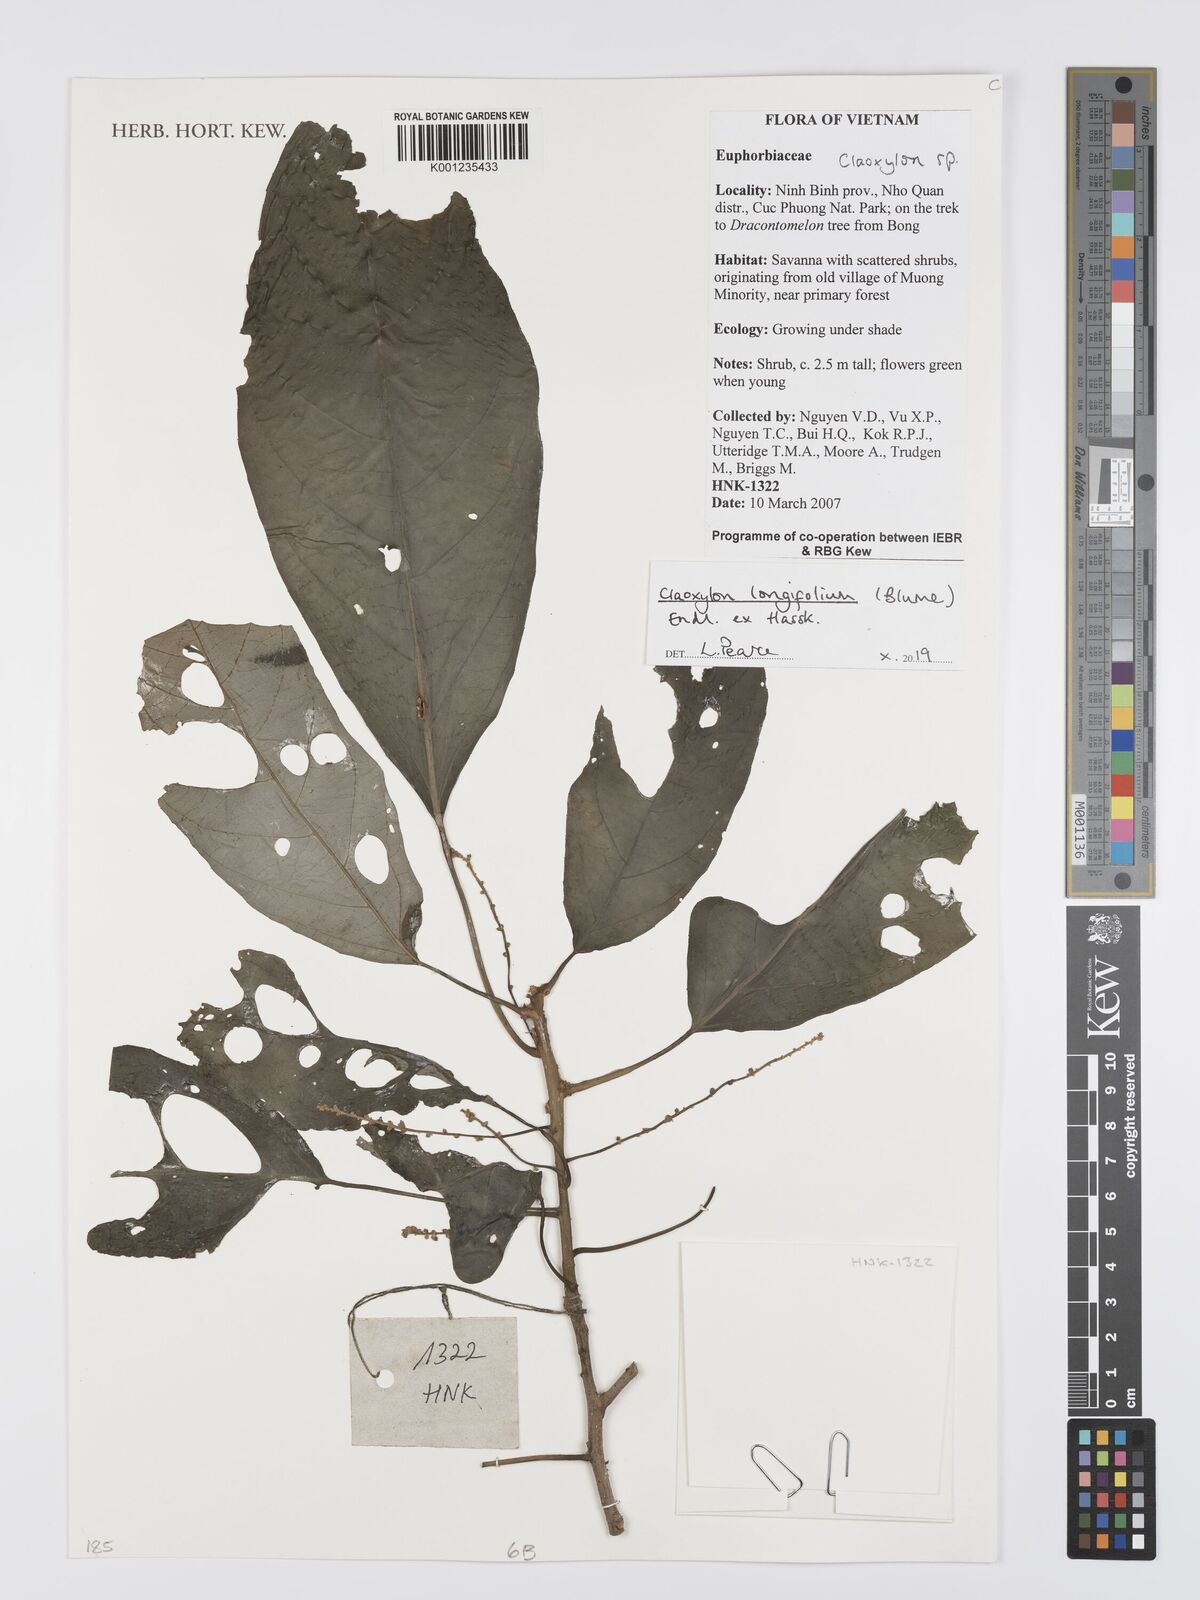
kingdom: Plantae
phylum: Tracheophyta
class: Magnoliopsida
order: Malpighiales
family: Euphorbiaceae
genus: Claoxylon
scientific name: Claoxylon longifolium
